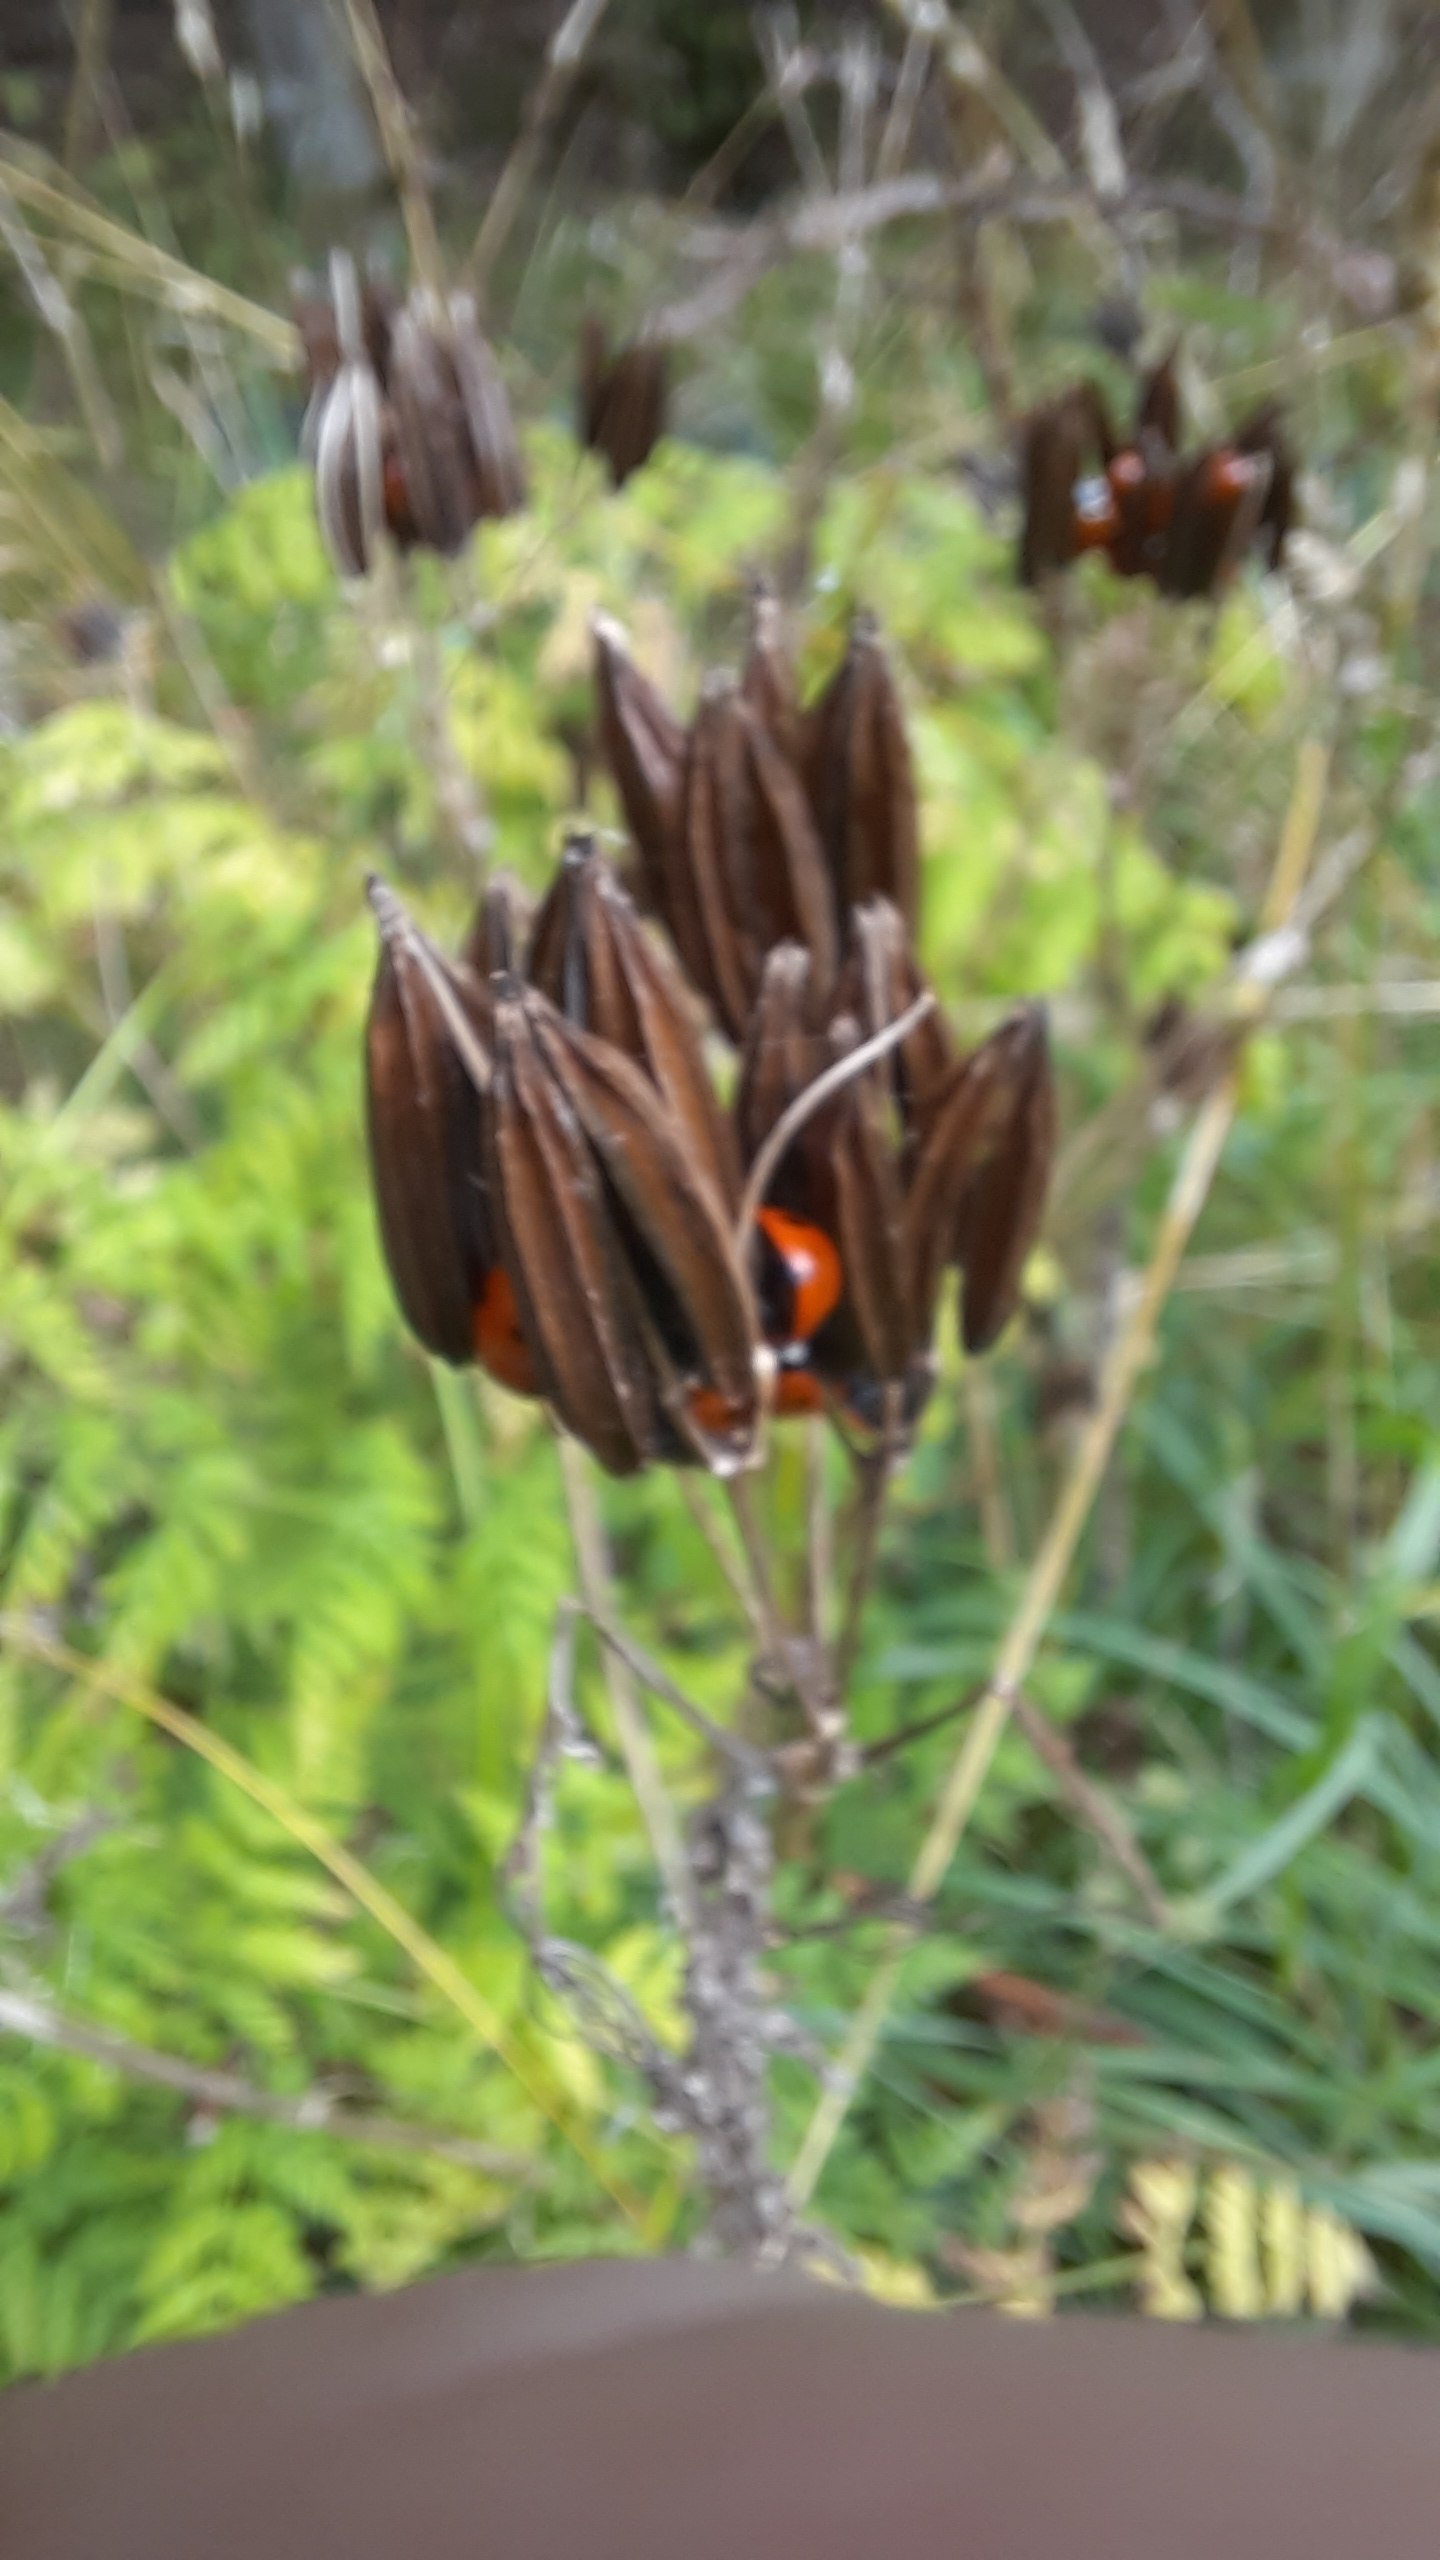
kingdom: Plantae
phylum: Tracheophyta
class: Magnoliopsida
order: Apiales
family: Apiaceae
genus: Myrrhis
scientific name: Myrrhis odorata
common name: Sødskærm
